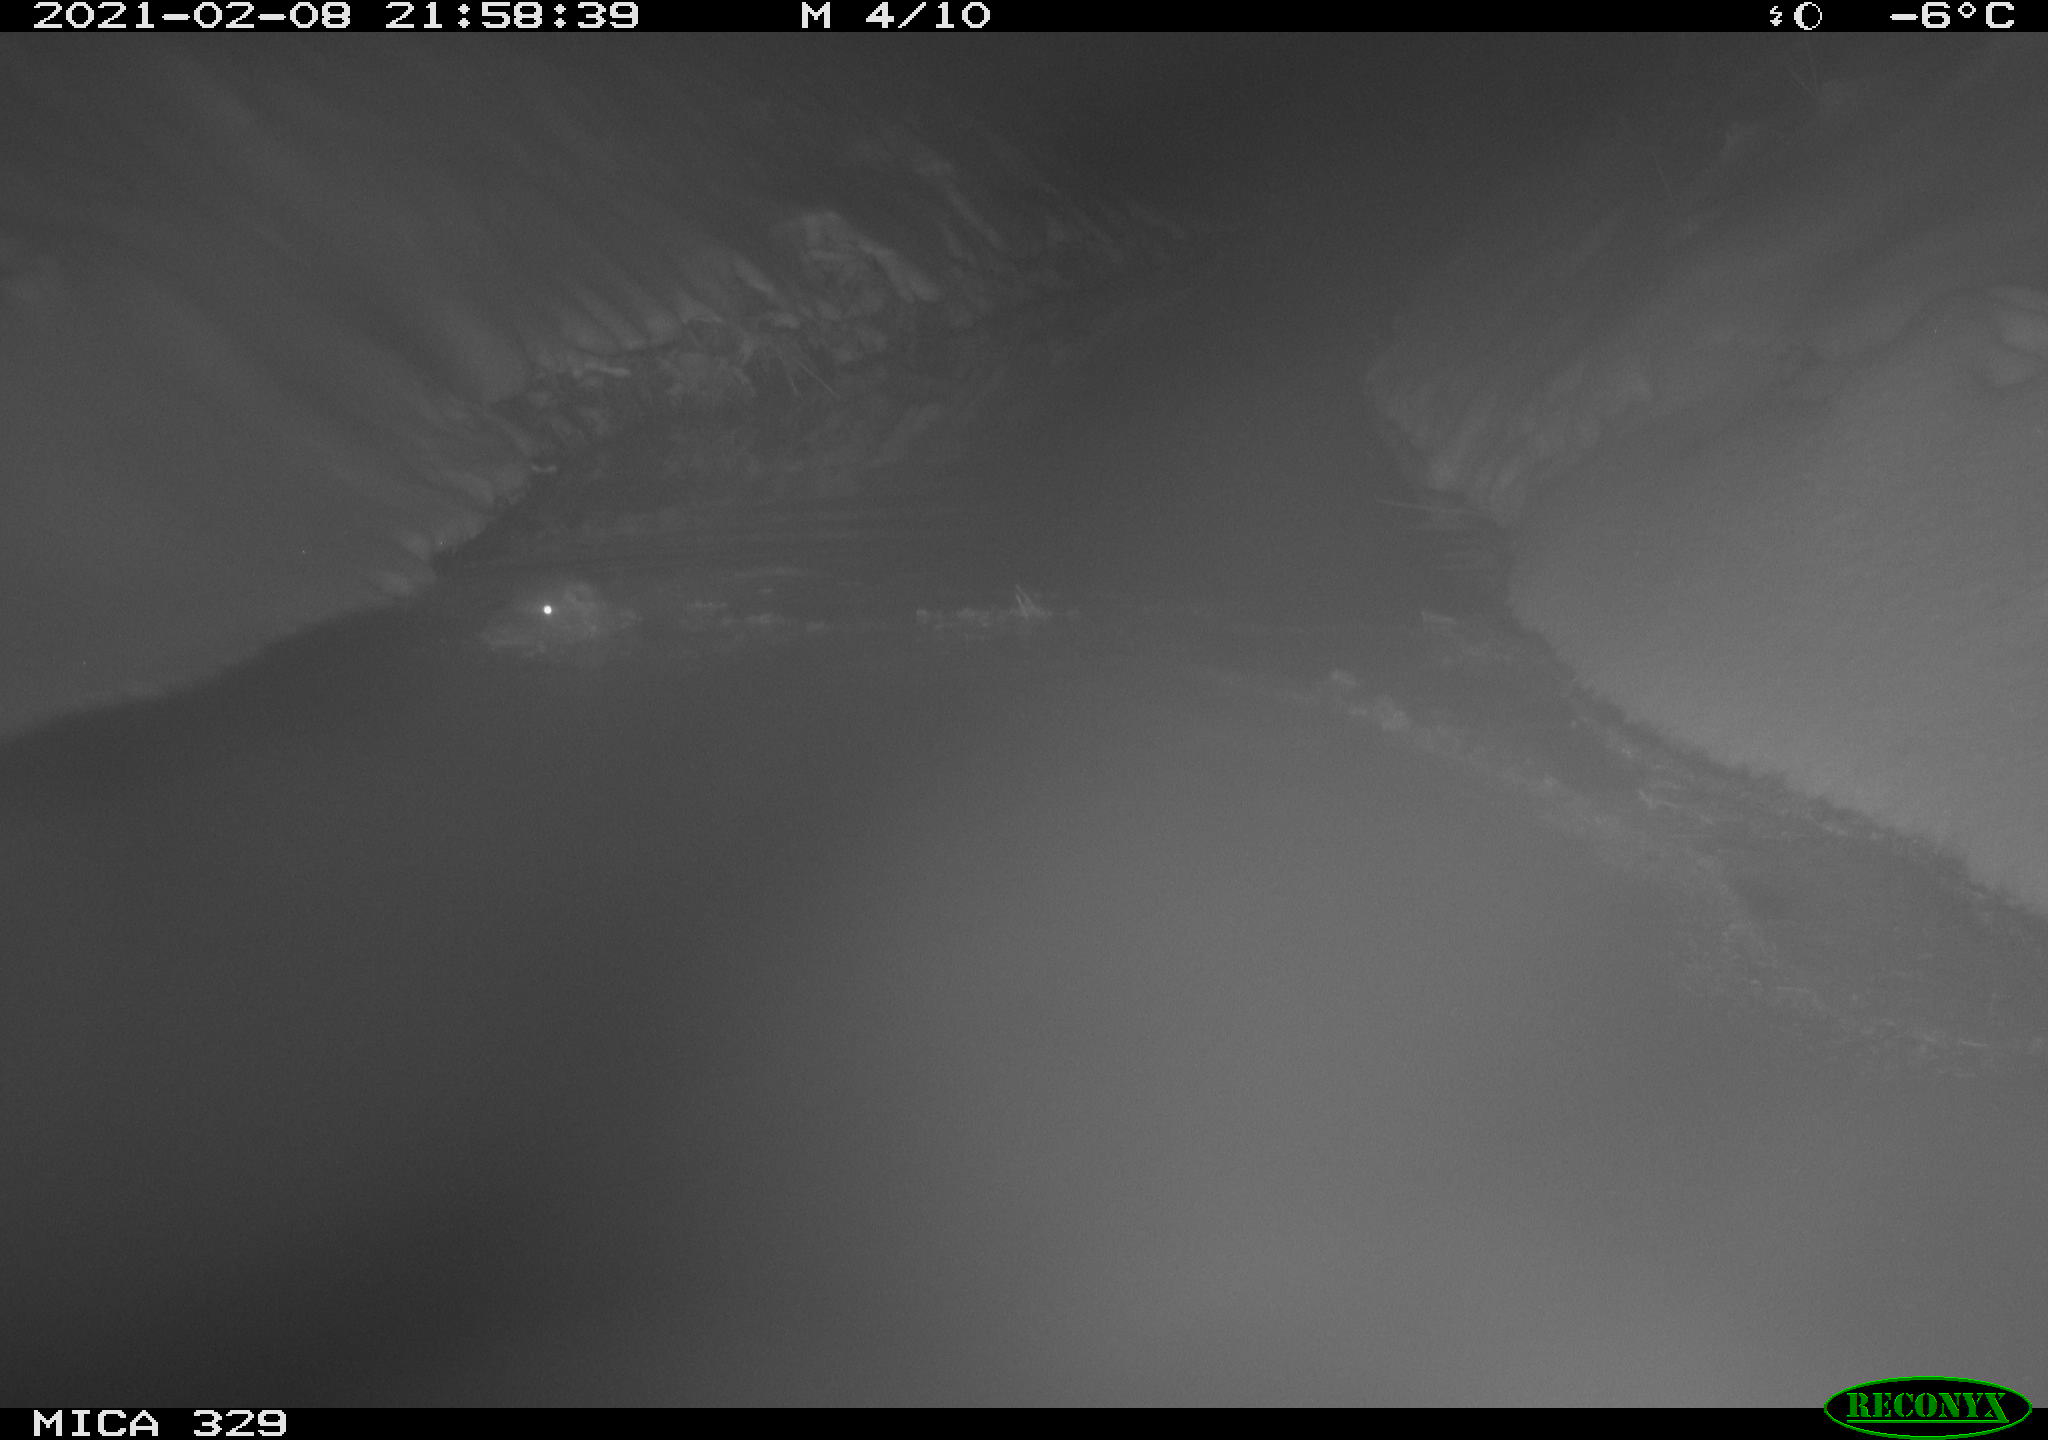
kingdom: Animalia
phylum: Chordata
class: Mammalia
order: Rodentia
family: Myocastoridae
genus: Myocastor
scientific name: Myocastor coypus
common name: Coypu
